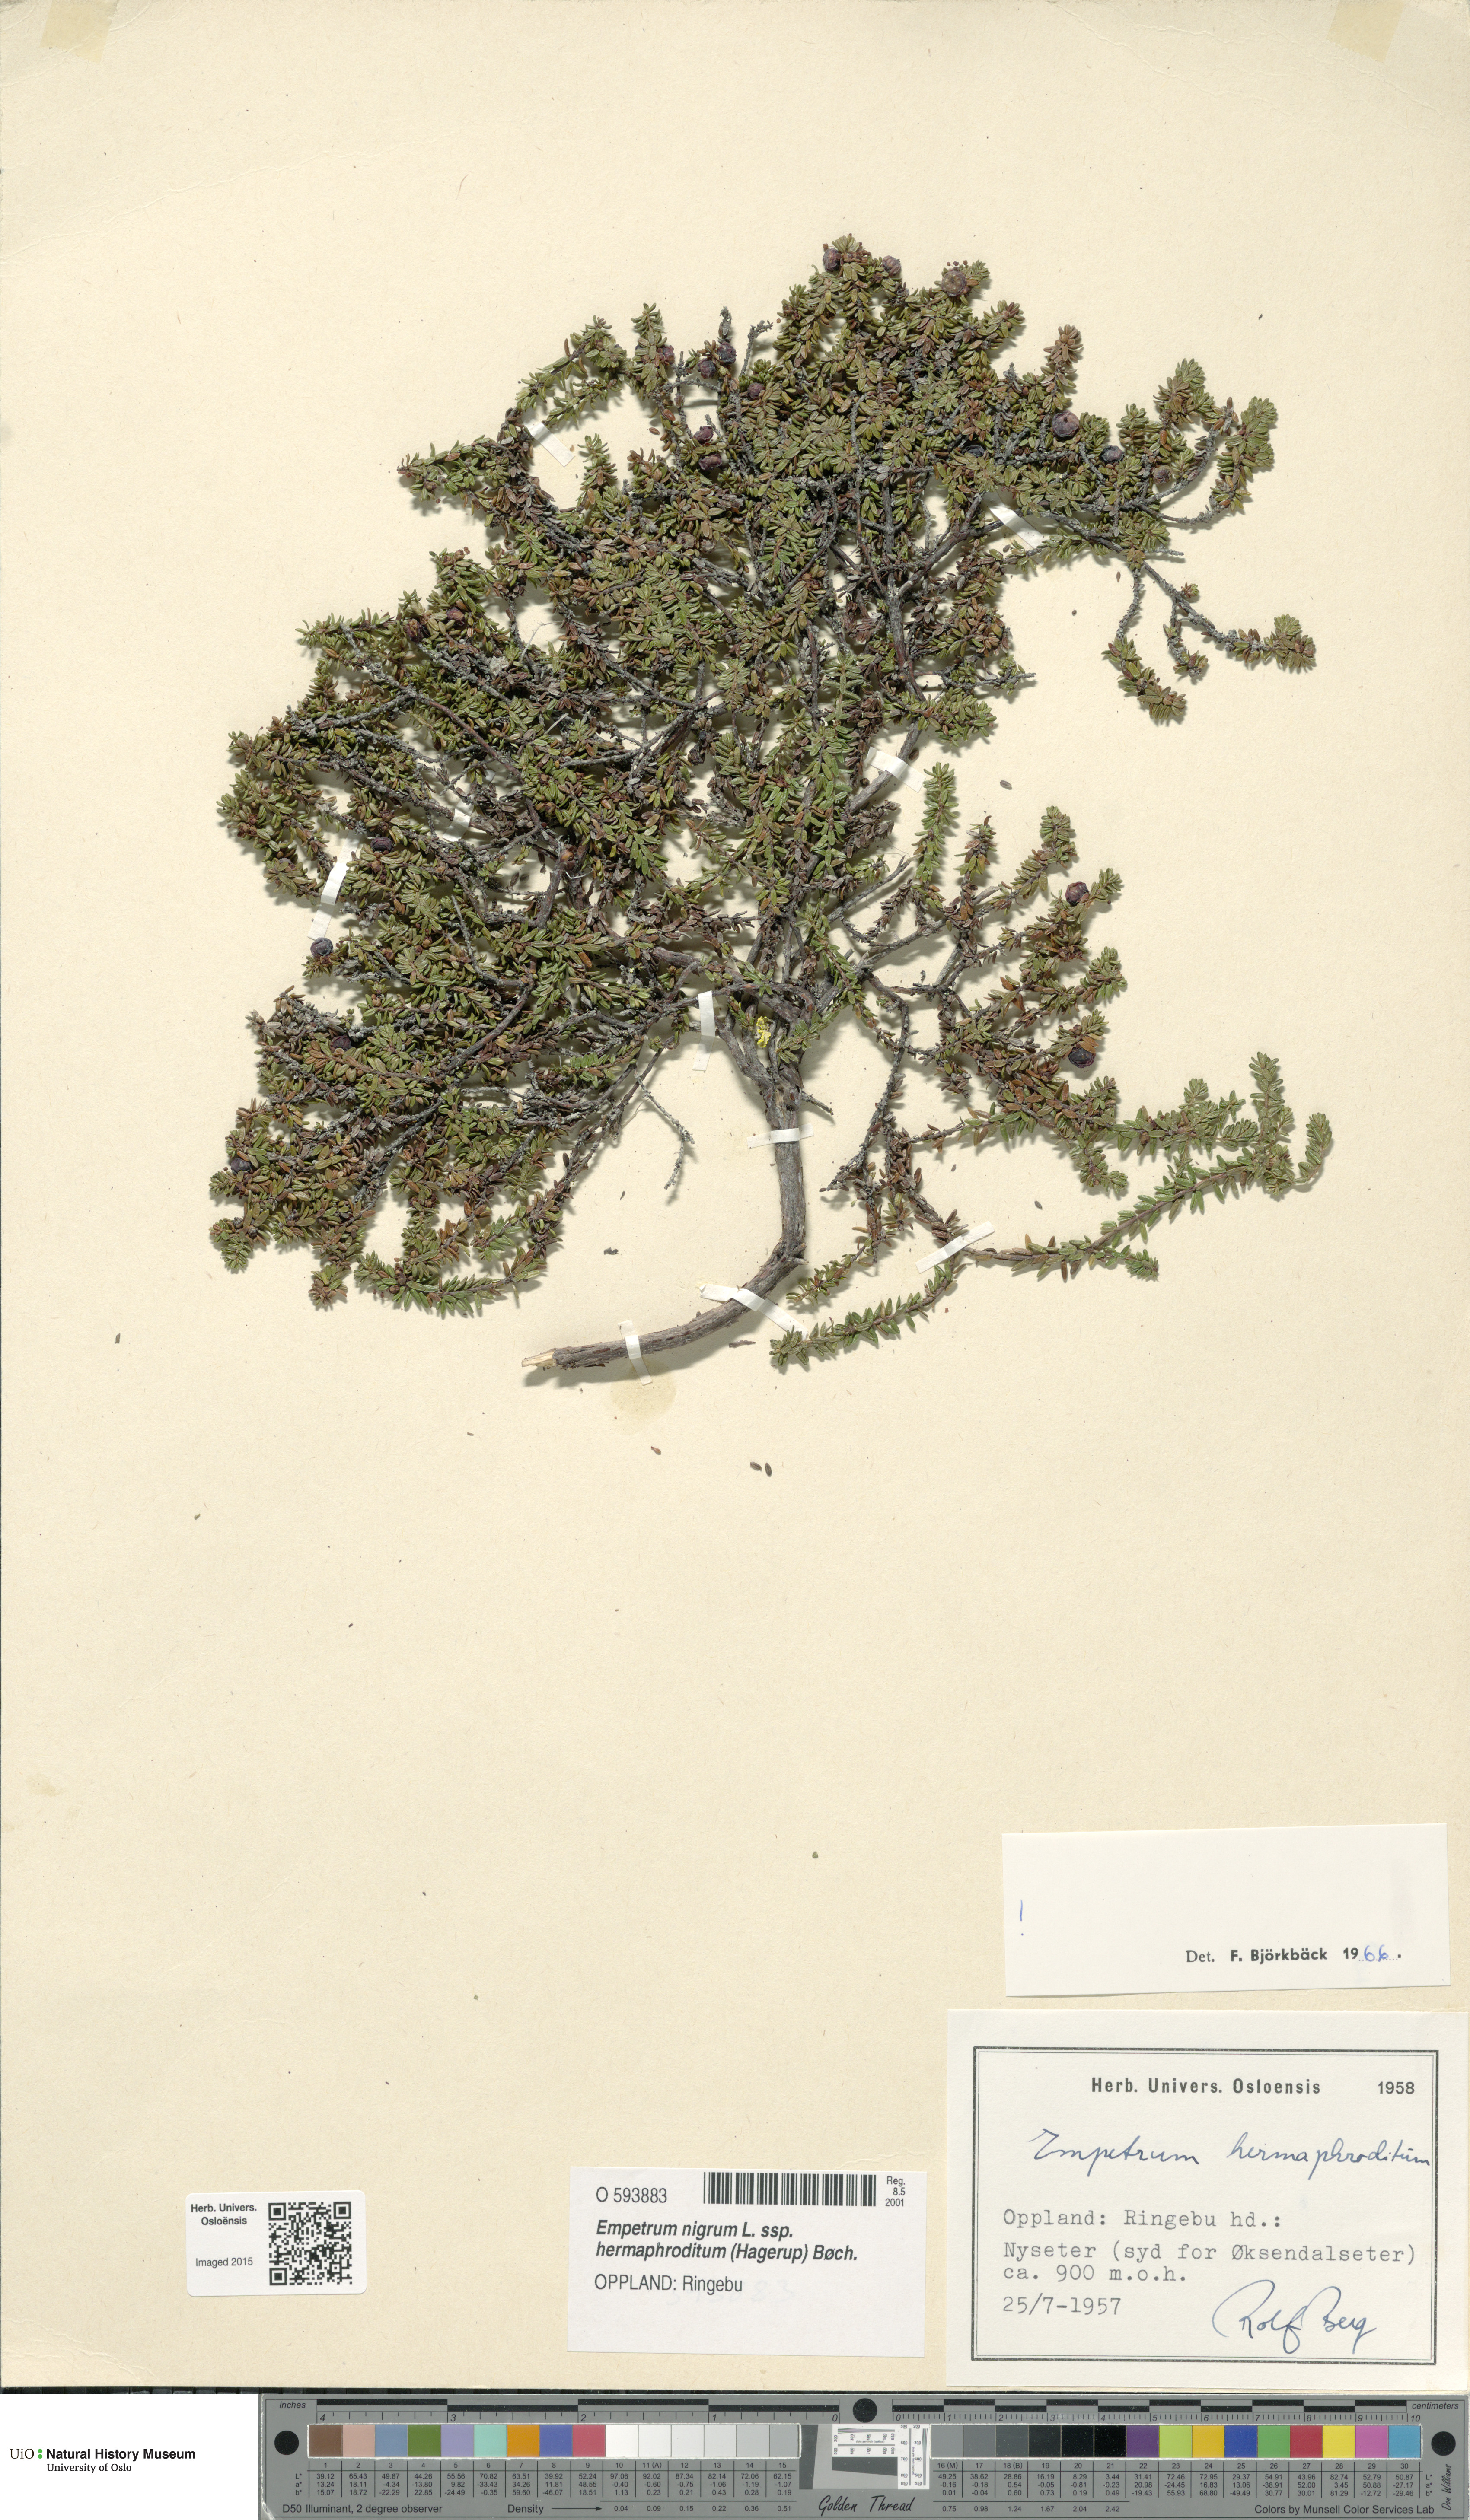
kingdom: Plantae
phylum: Tracheophyta
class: Magnoliopsida
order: Ericales
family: Ericaceae
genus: Empetrum
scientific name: Empetrum hermaphroditum
